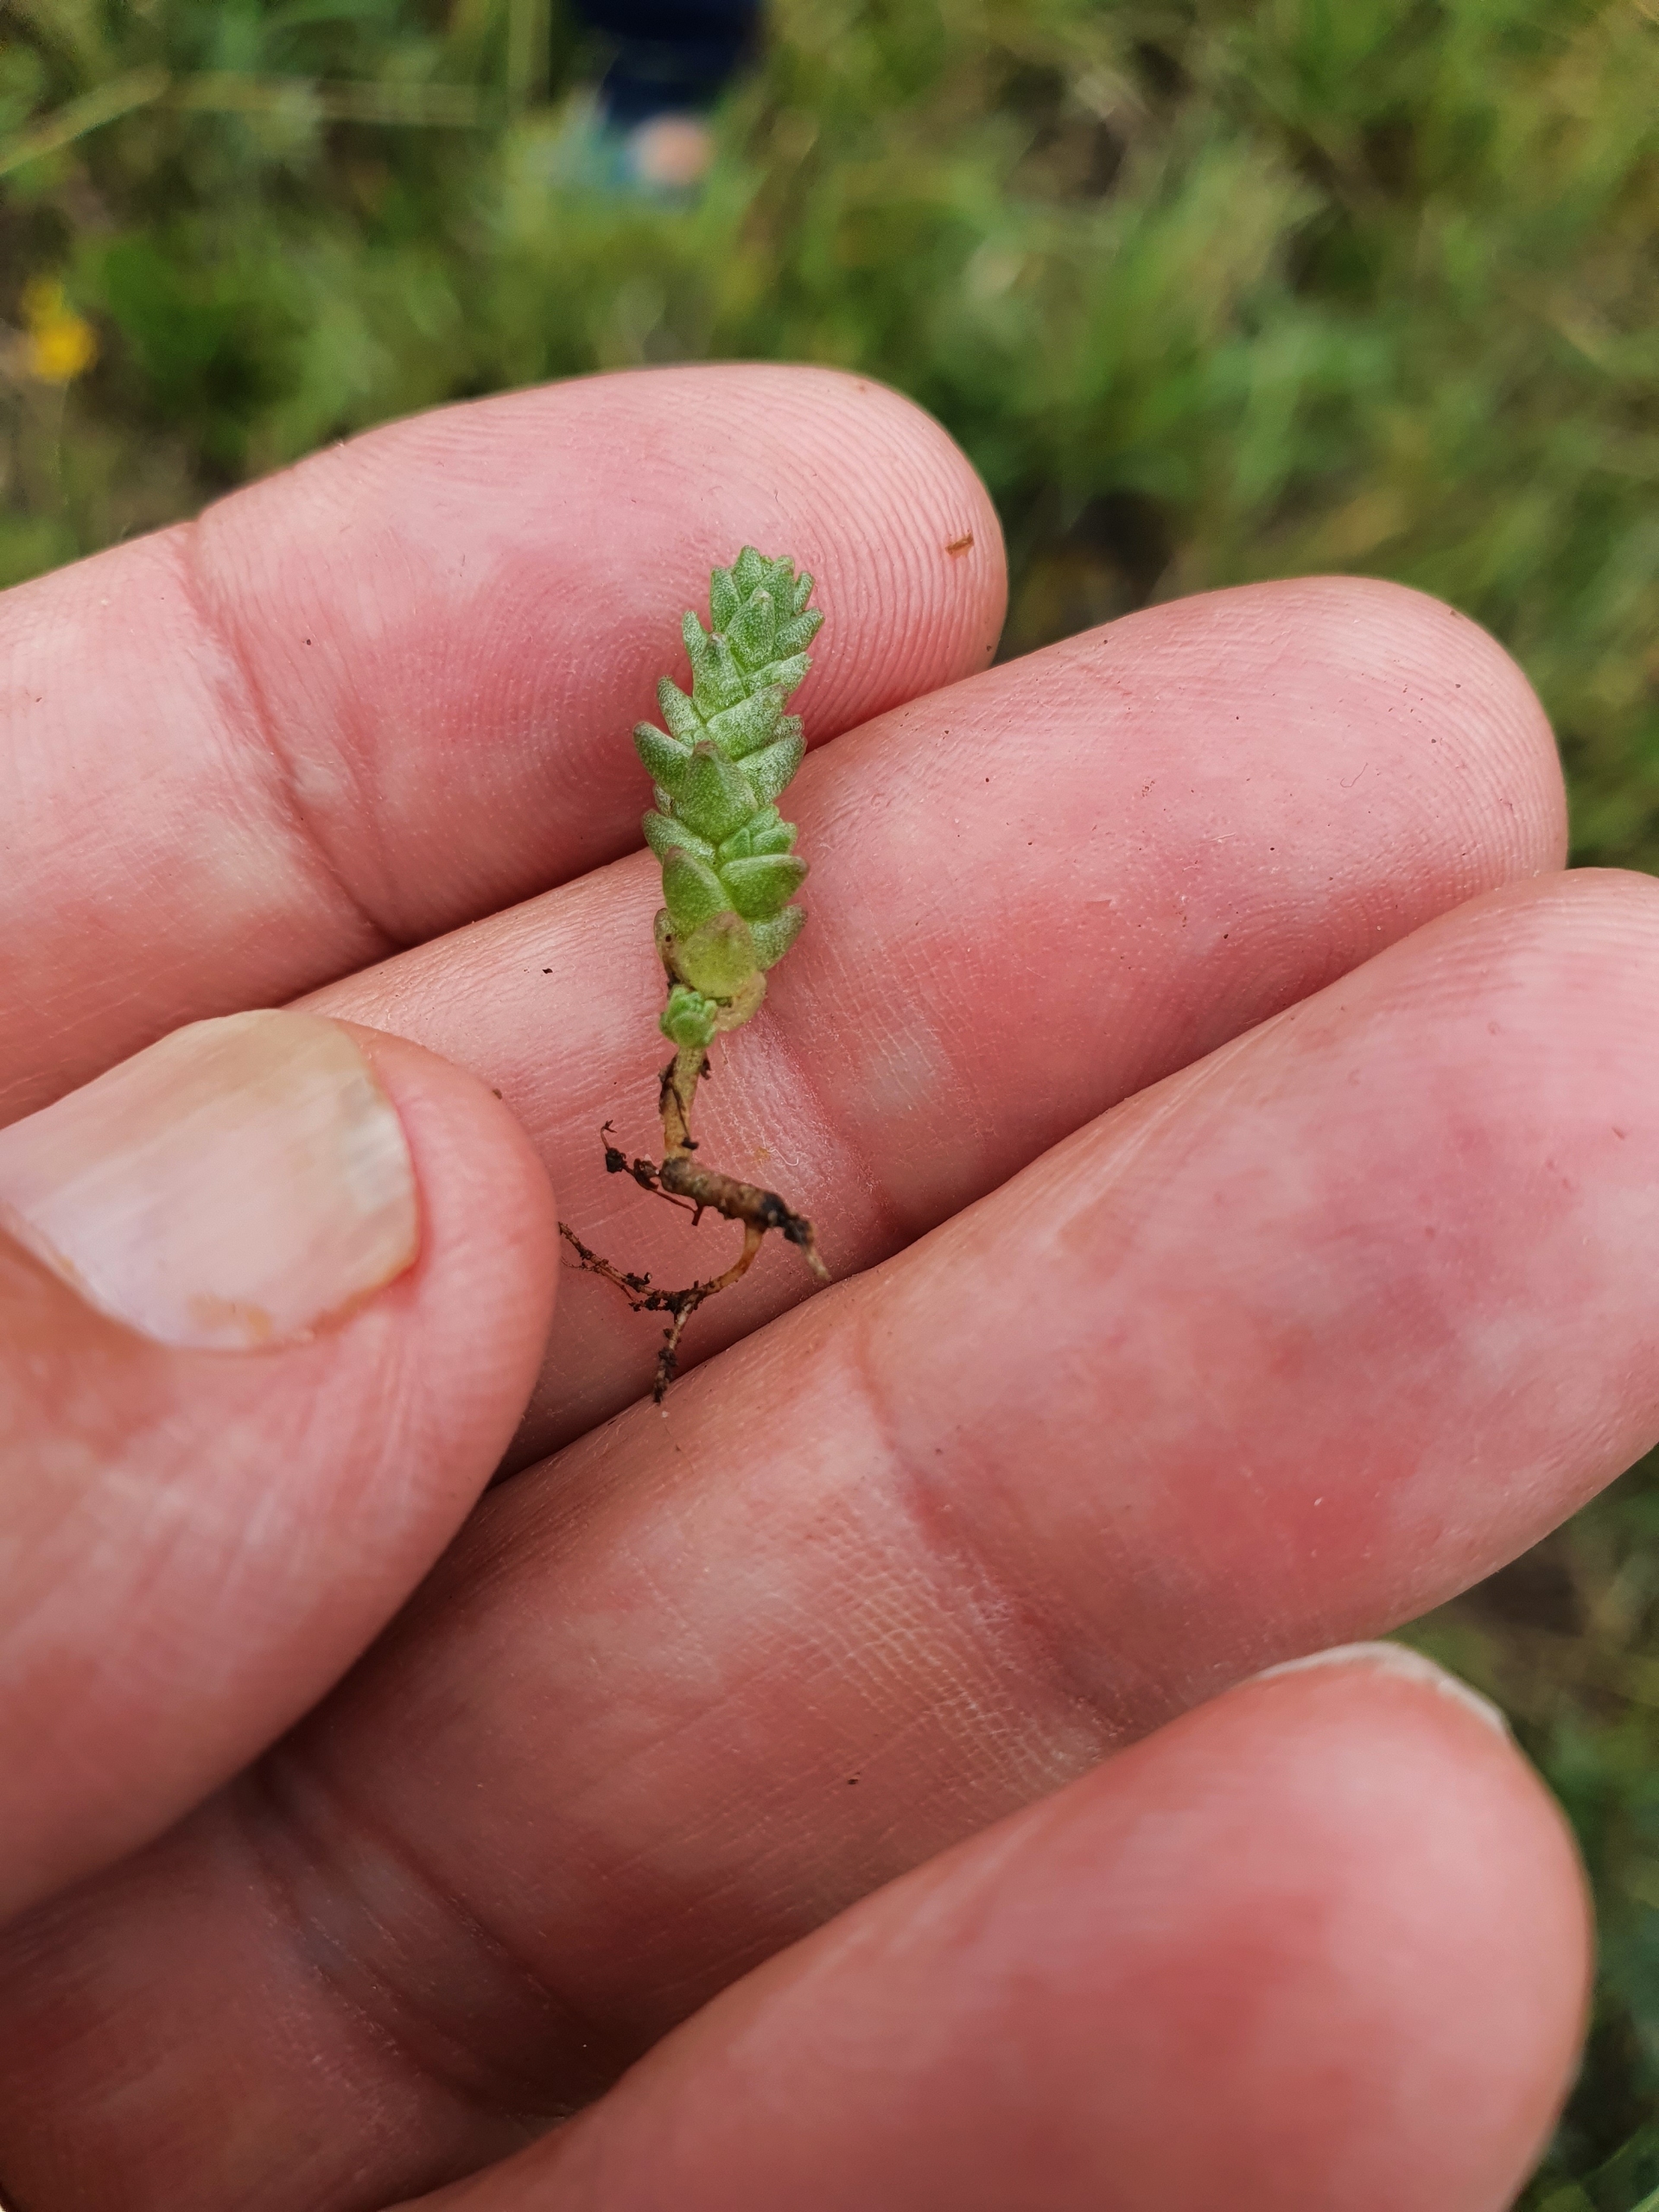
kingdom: Plantae
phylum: Tracheophyta
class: Magnoliopsida
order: Saxifragales
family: Crassulaceae
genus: Sedum
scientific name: Sedum acre
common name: Bidende stenurt
